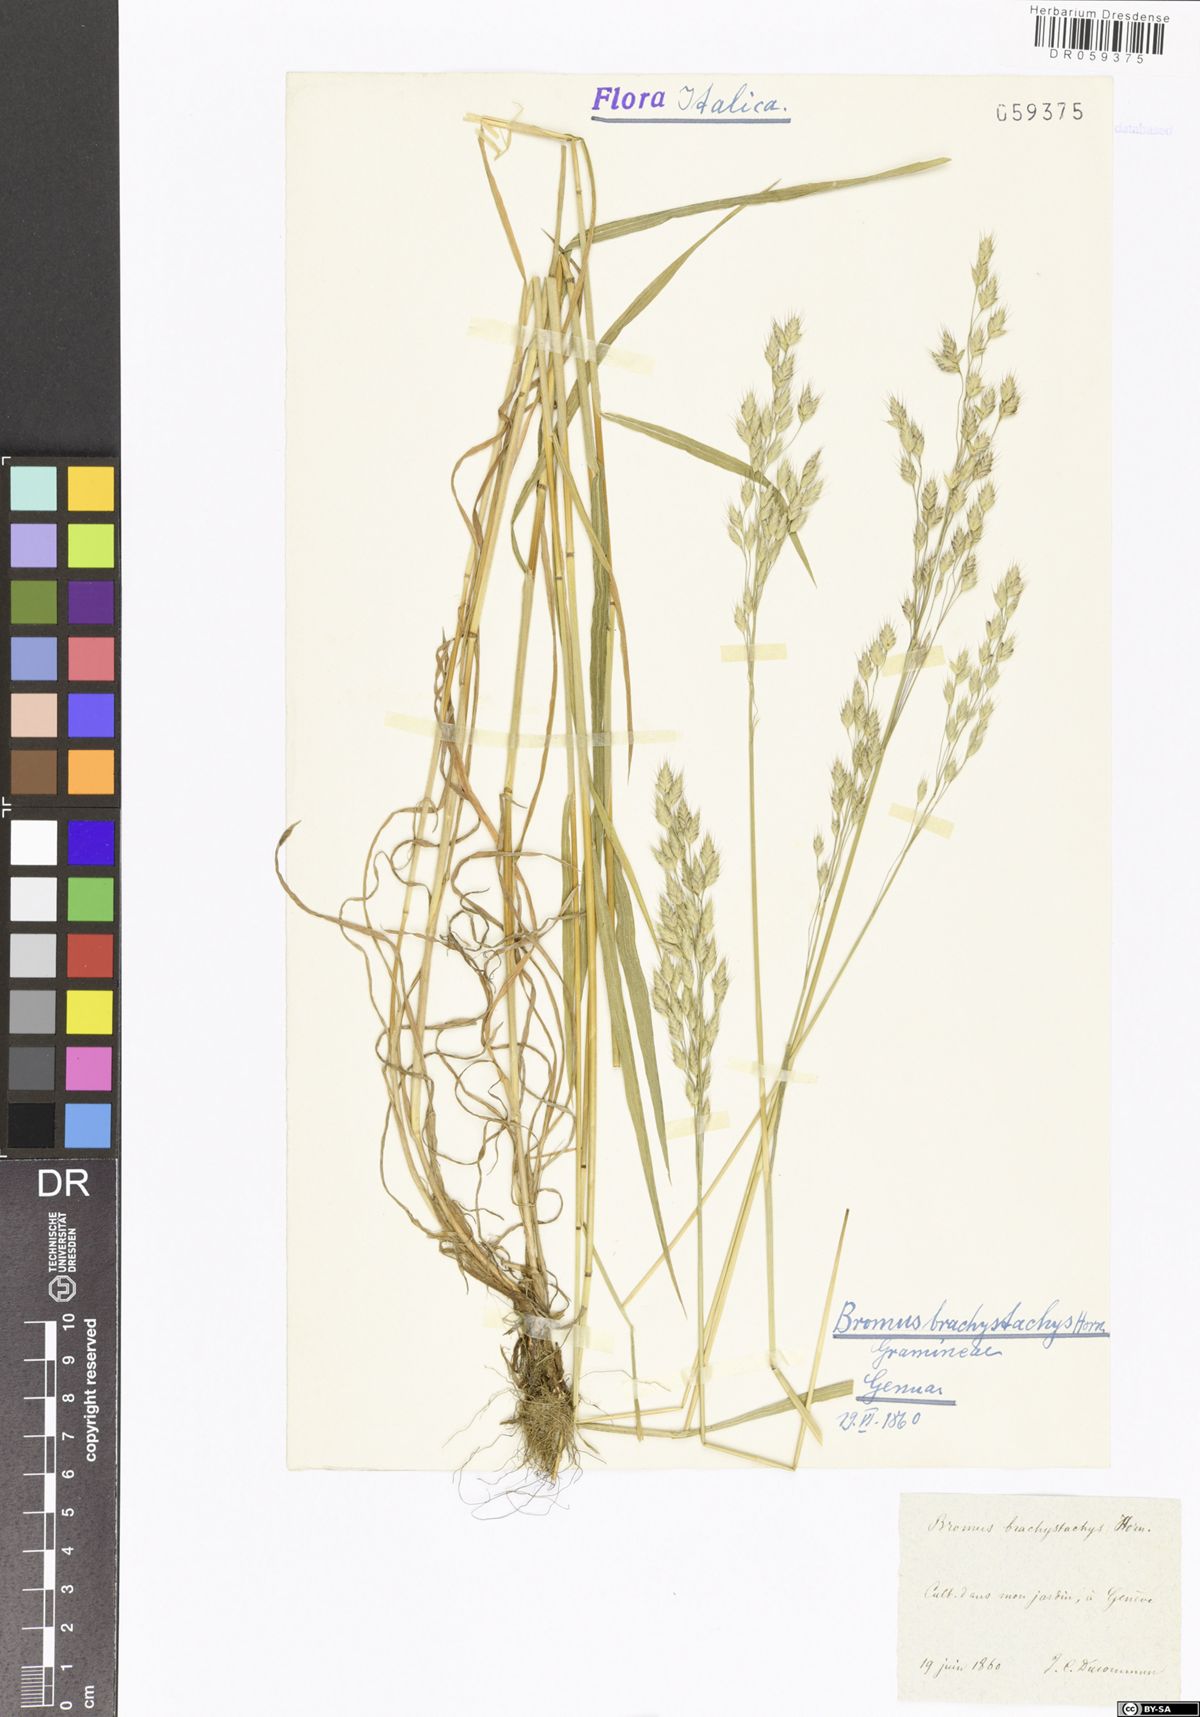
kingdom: Plantae
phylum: Tracheophyta
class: Liliopsida
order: Poales
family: Poaceae
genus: Bromus
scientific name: Bromus brachystachys
